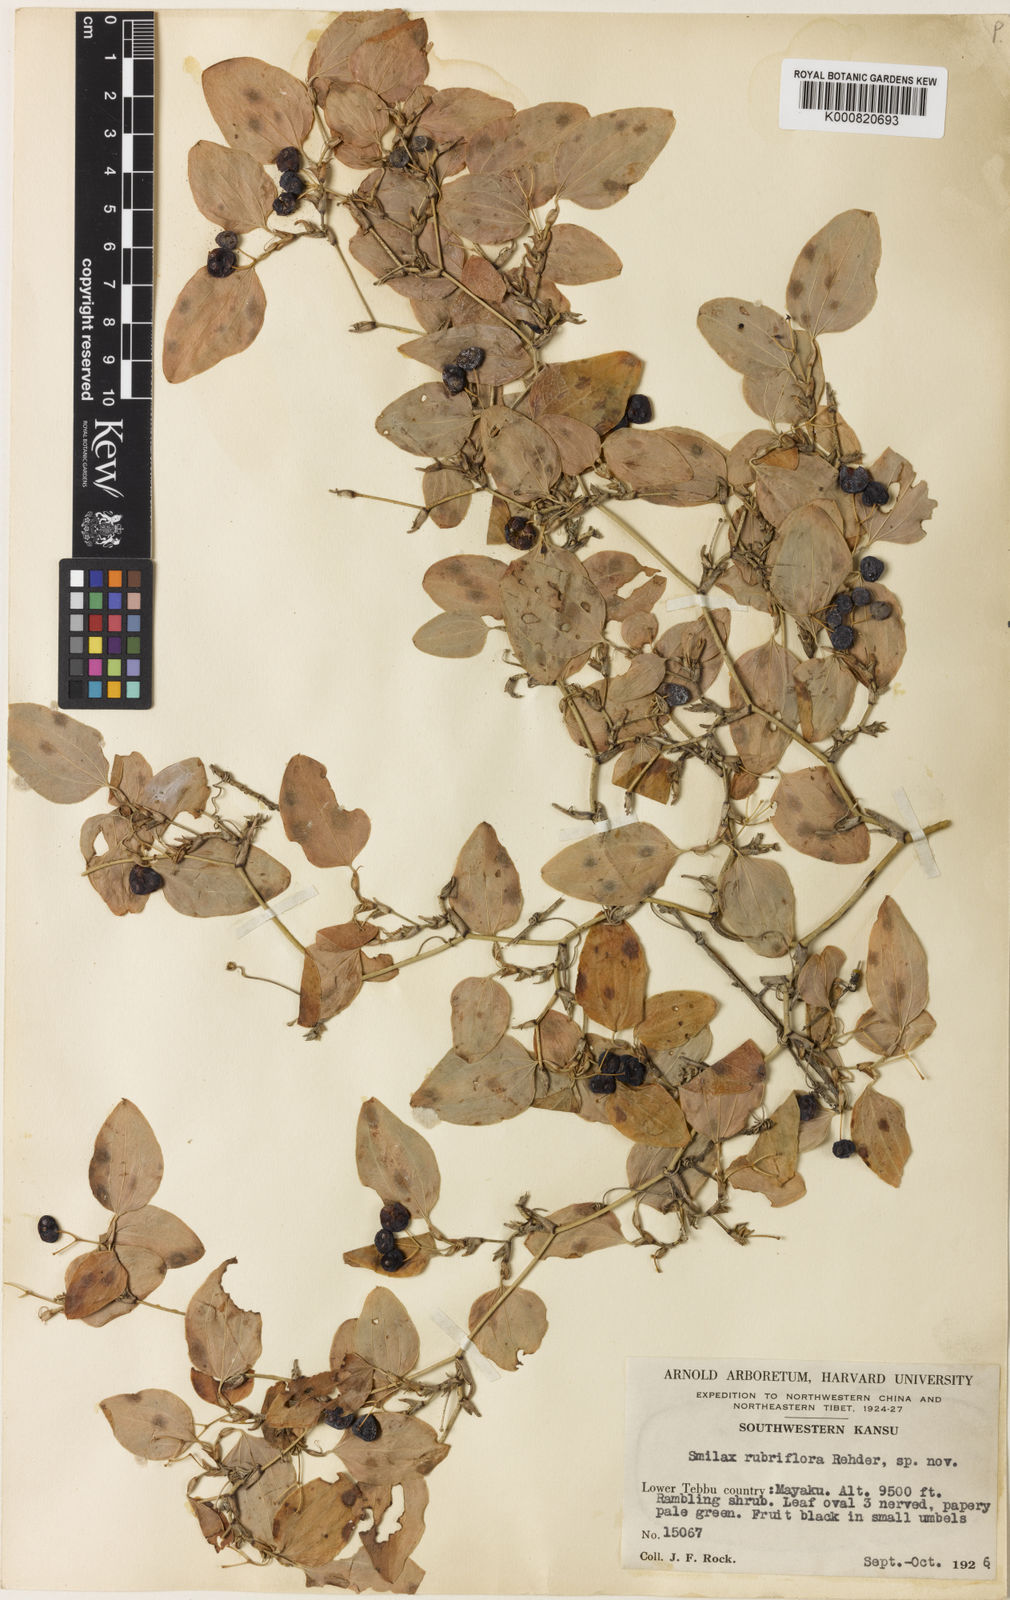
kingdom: Plantae
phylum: Tracheophyta
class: Liliopsida
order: Liliales
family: Smilacaceae
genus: Smilax
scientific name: Smilax menispermoidea
